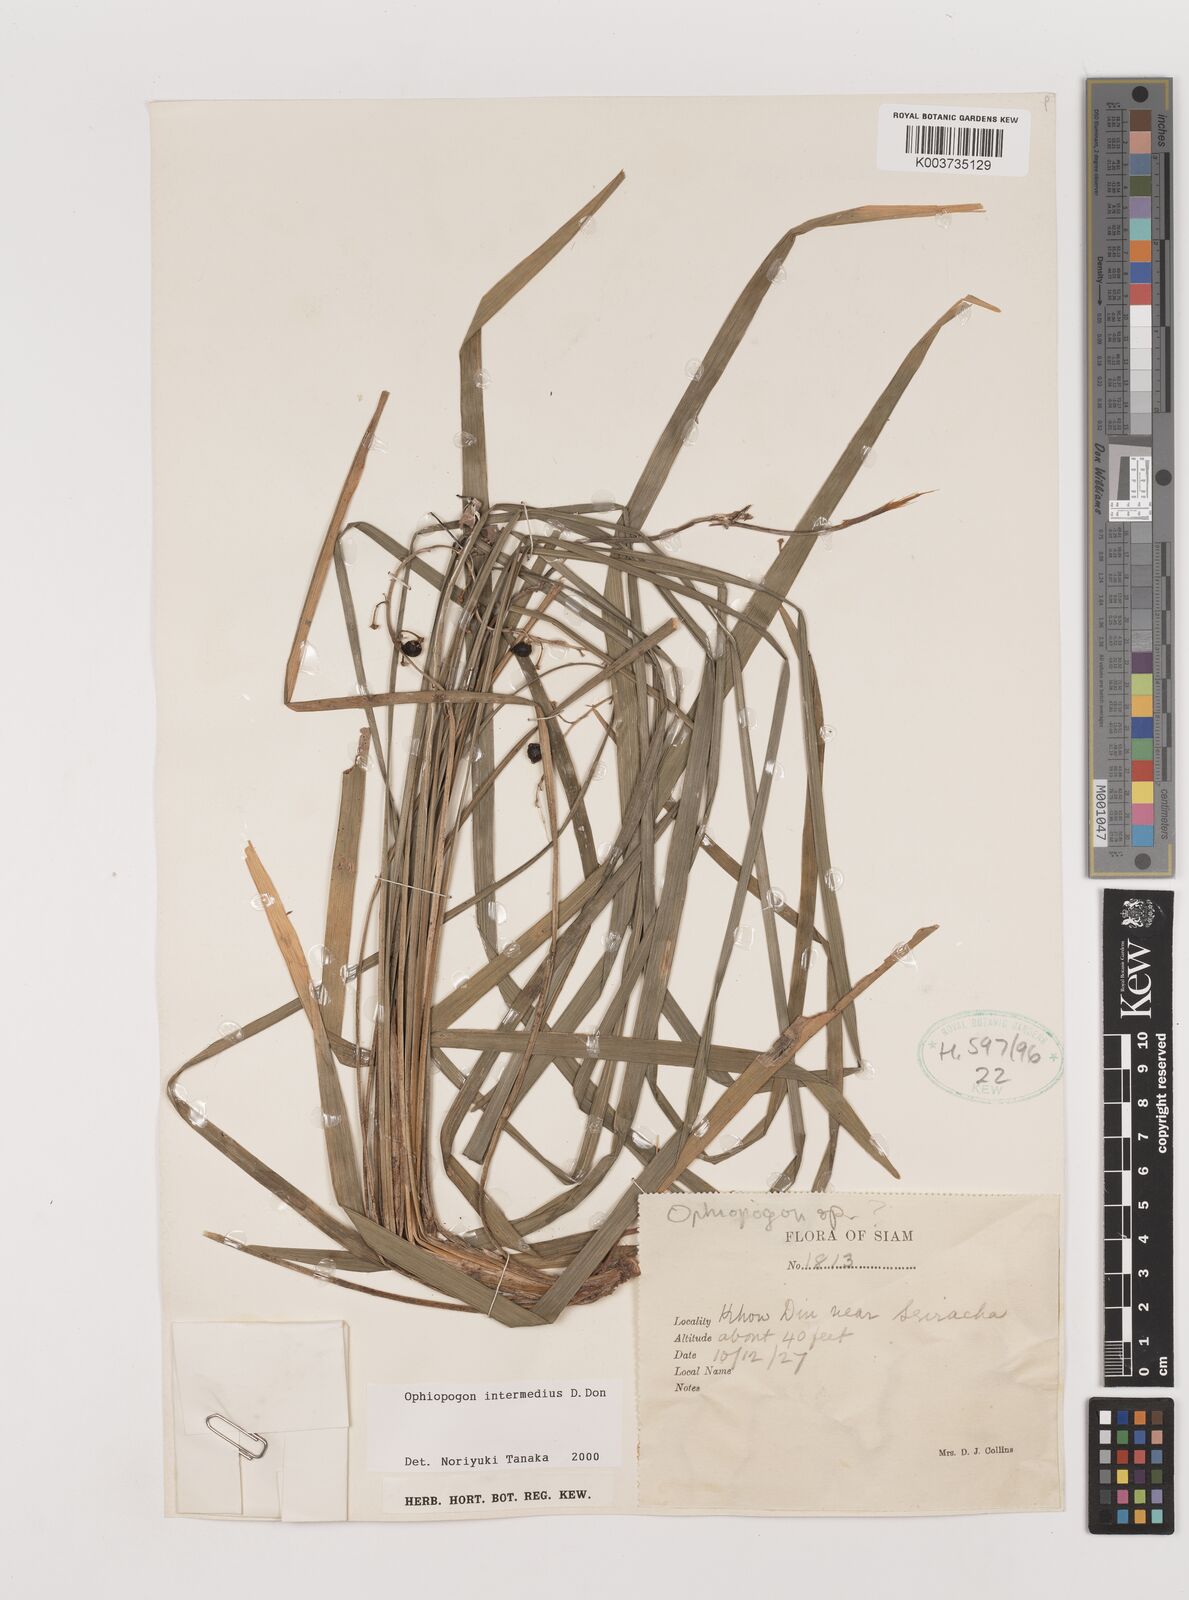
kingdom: Plantae
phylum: Tracheophyta
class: Liliopsida
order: Asparagales
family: Asparagaceae
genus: Ophiopogon
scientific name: Ophiopogon japonicus
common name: Dwarf lilyturf
